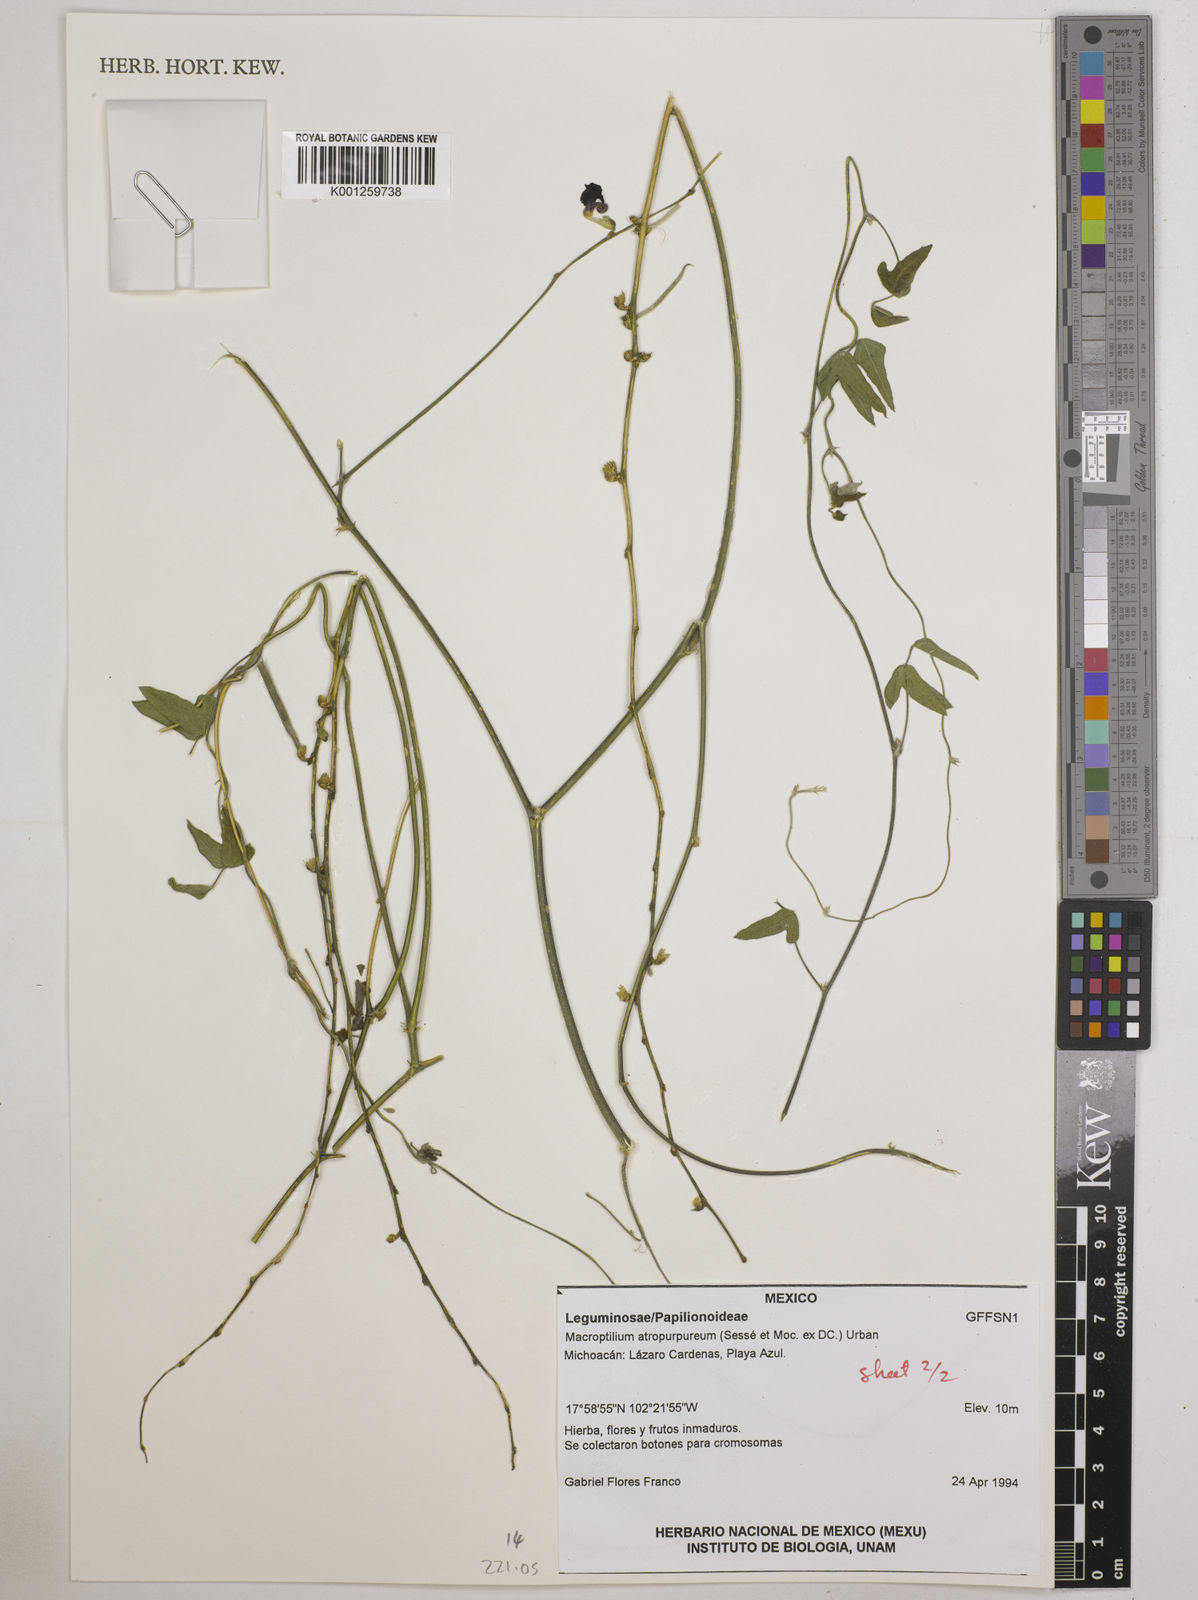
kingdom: Plantae
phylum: Tracheophyta
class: Magnoliopsida
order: Fabales
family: Fabaceae
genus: Macroptilium
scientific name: Macroptilium atropurpureum
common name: Purple bushbean
